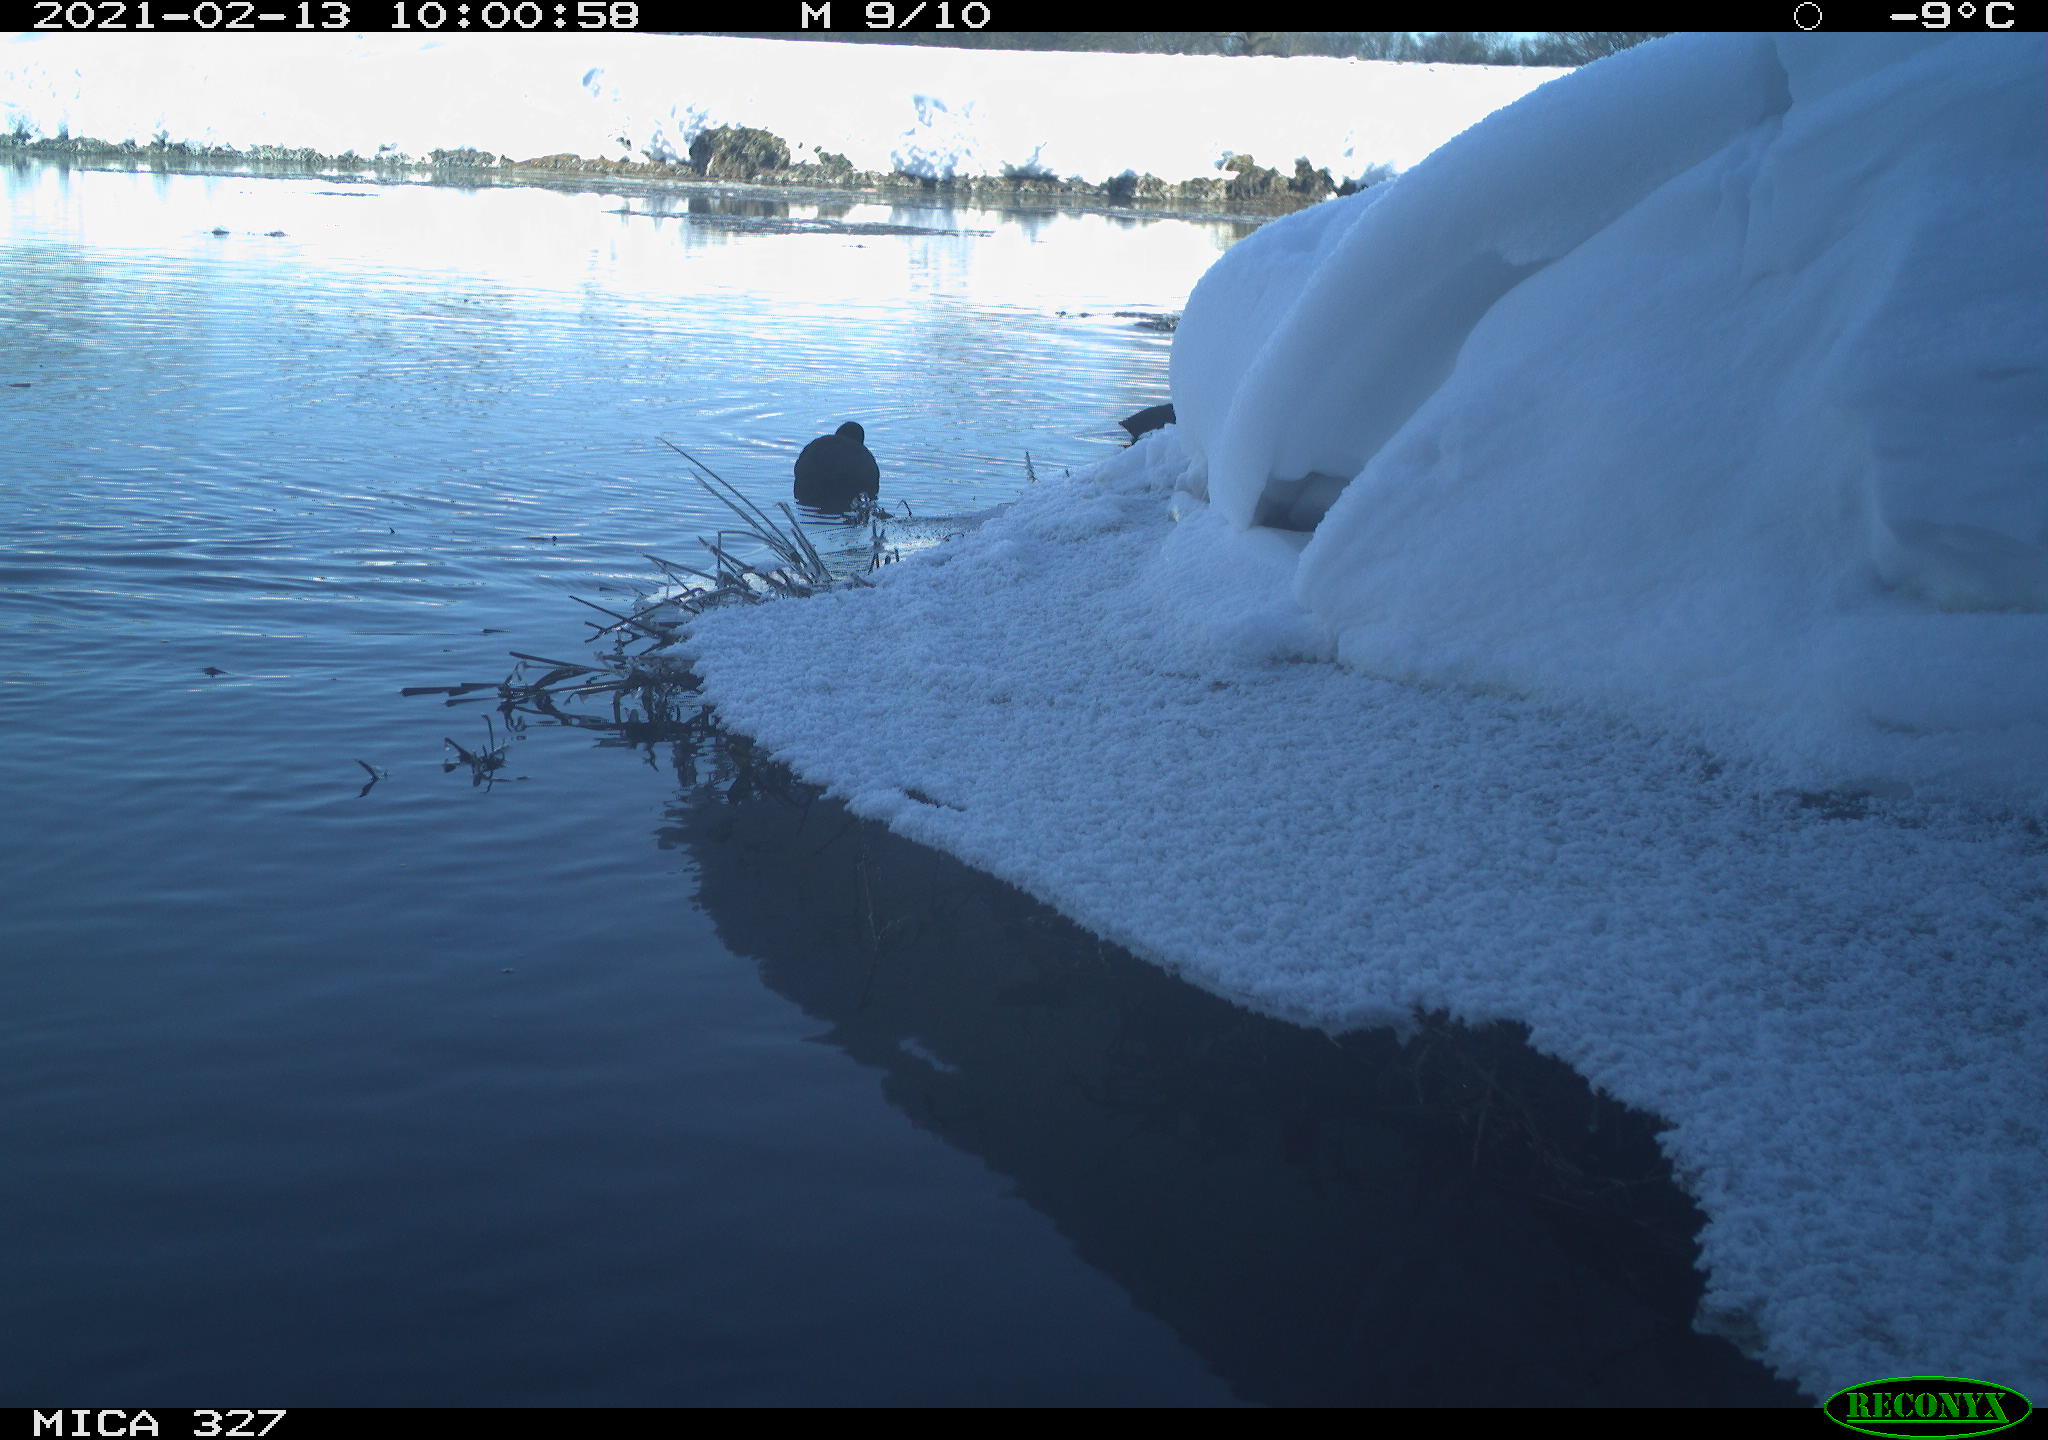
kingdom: Animalia
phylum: Chordata
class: Aves
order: Gruiformes
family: Rallidae
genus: Fulica
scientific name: Fulica atra
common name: Eurasian coot
